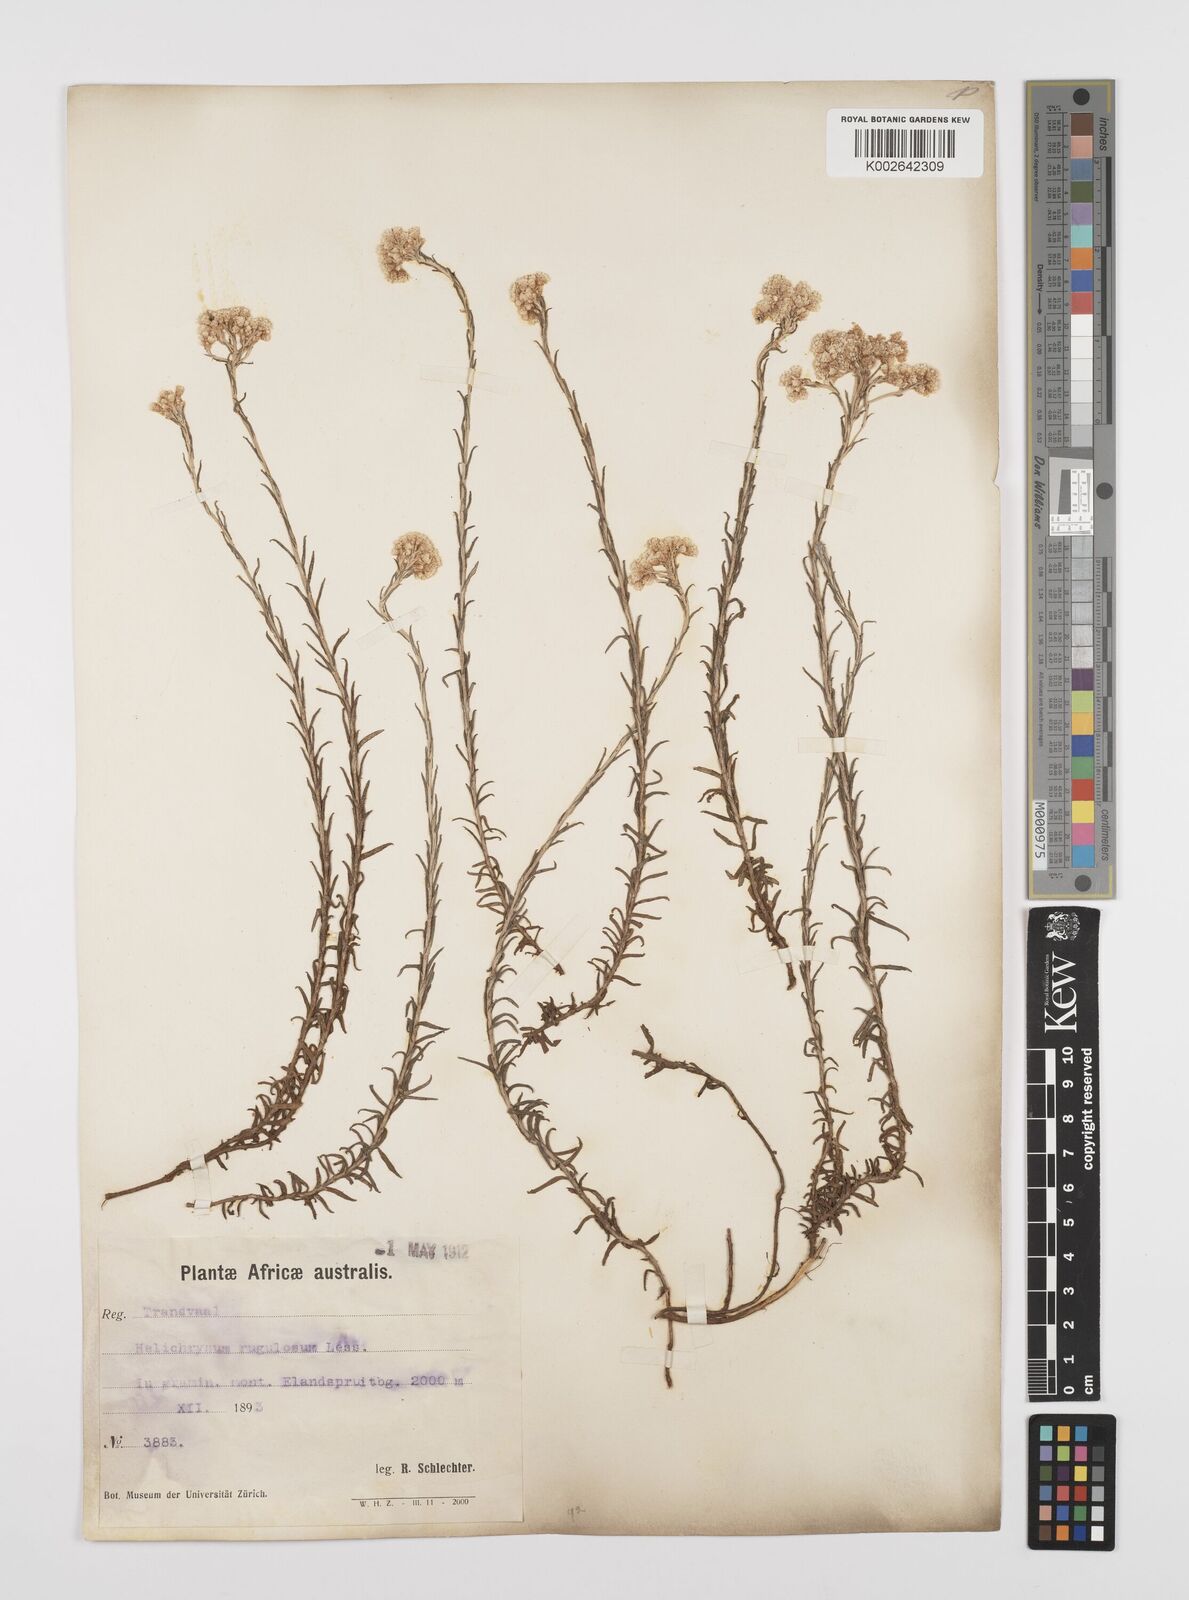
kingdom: Plantae
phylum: Tracheophyta
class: Magnoliopsida
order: Asterales
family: Asteraceae
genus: Helichrysum
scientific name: Helichrysum rugulosum
